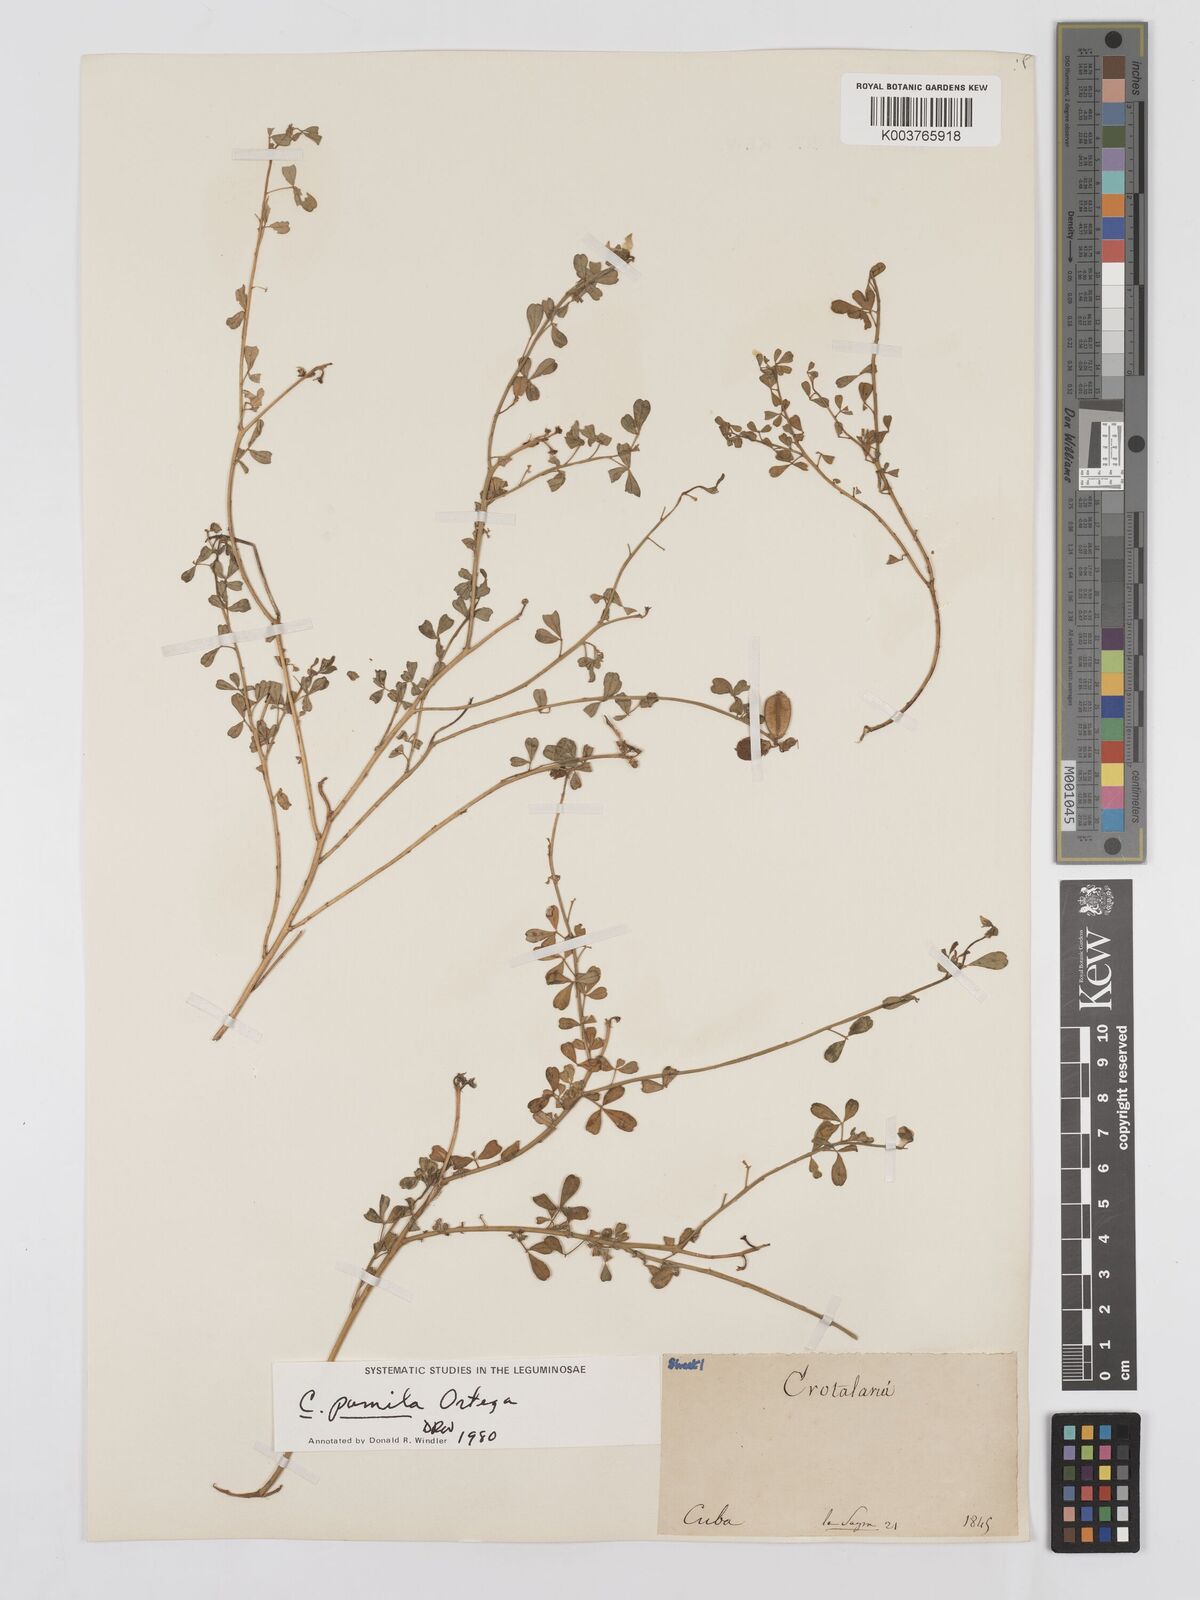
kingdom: Plantae
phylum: Tracheophyta
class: Magnoliopsida
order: Fabales
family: Fabaceae
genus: Crotalaria
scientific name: Crotalaria pumila
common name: Low rattlebox
